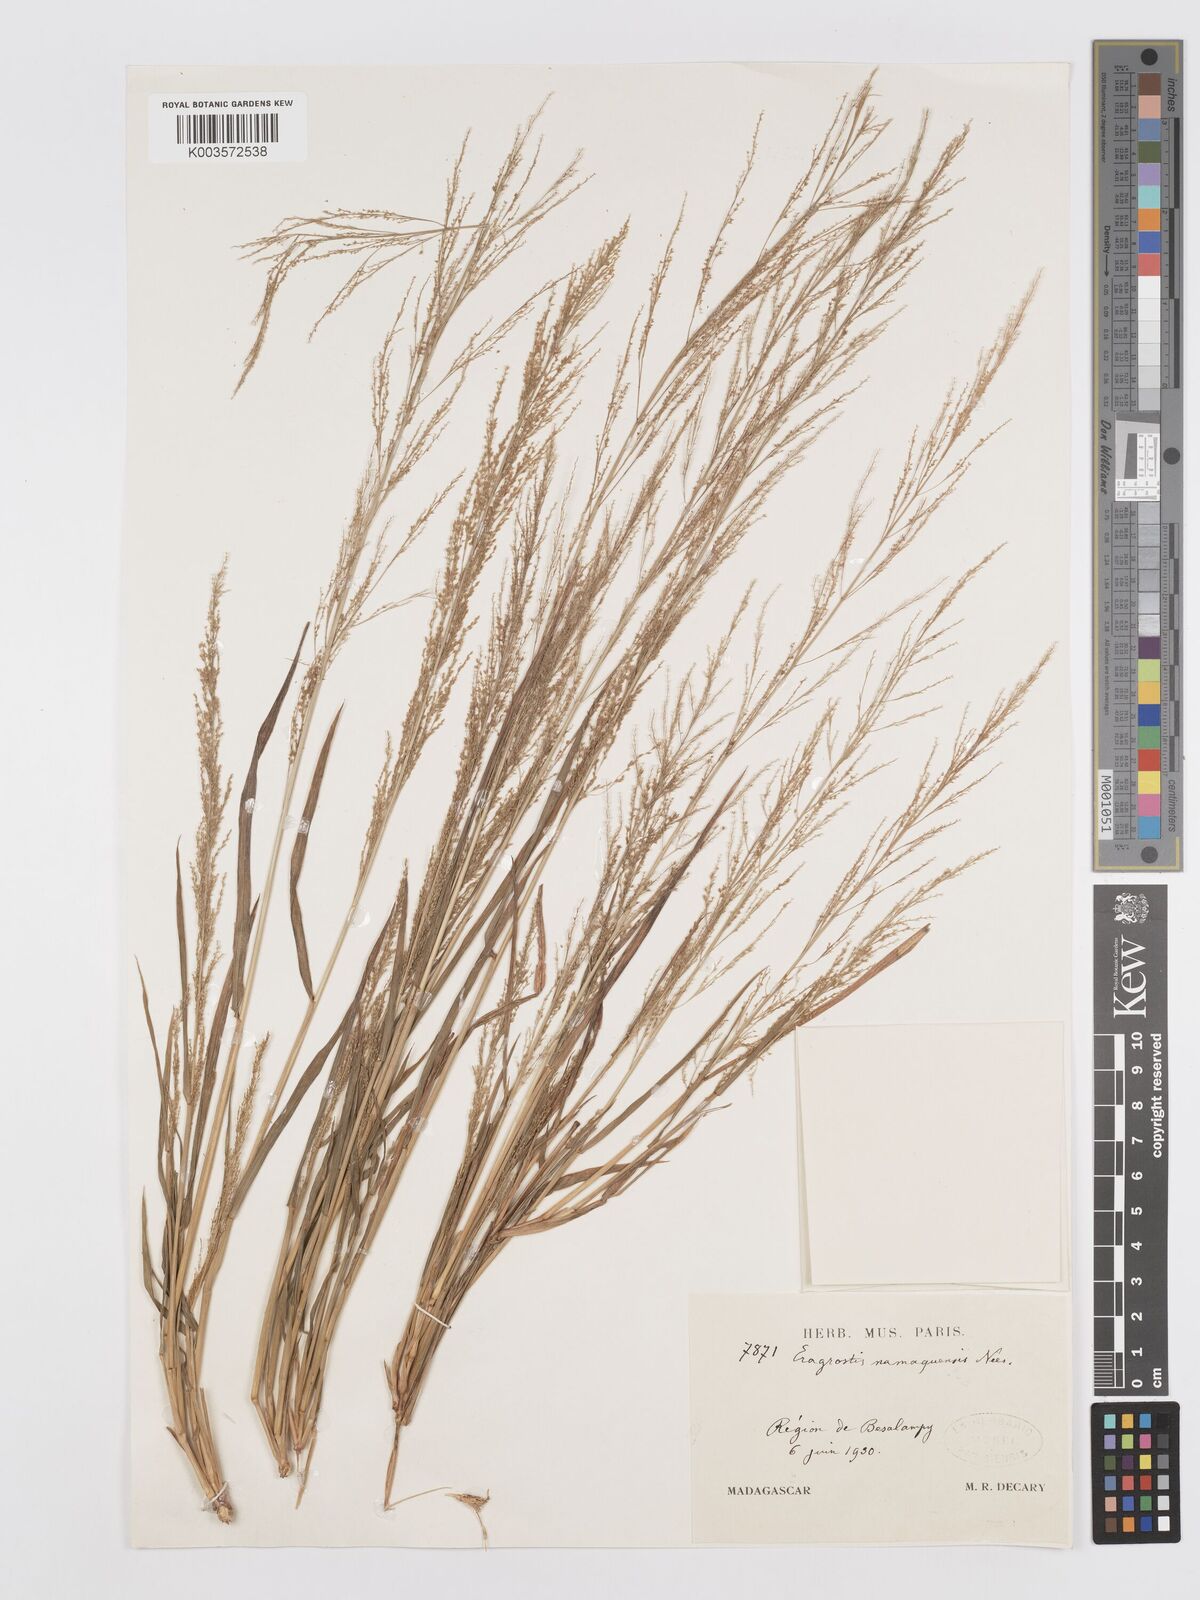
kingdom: Plantae
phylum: Tracheophyta
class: Liliopsida
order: Poales
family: Poaceae
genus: Eragrostis
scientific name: Eragrostis japonica
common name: Pond lovegrass
